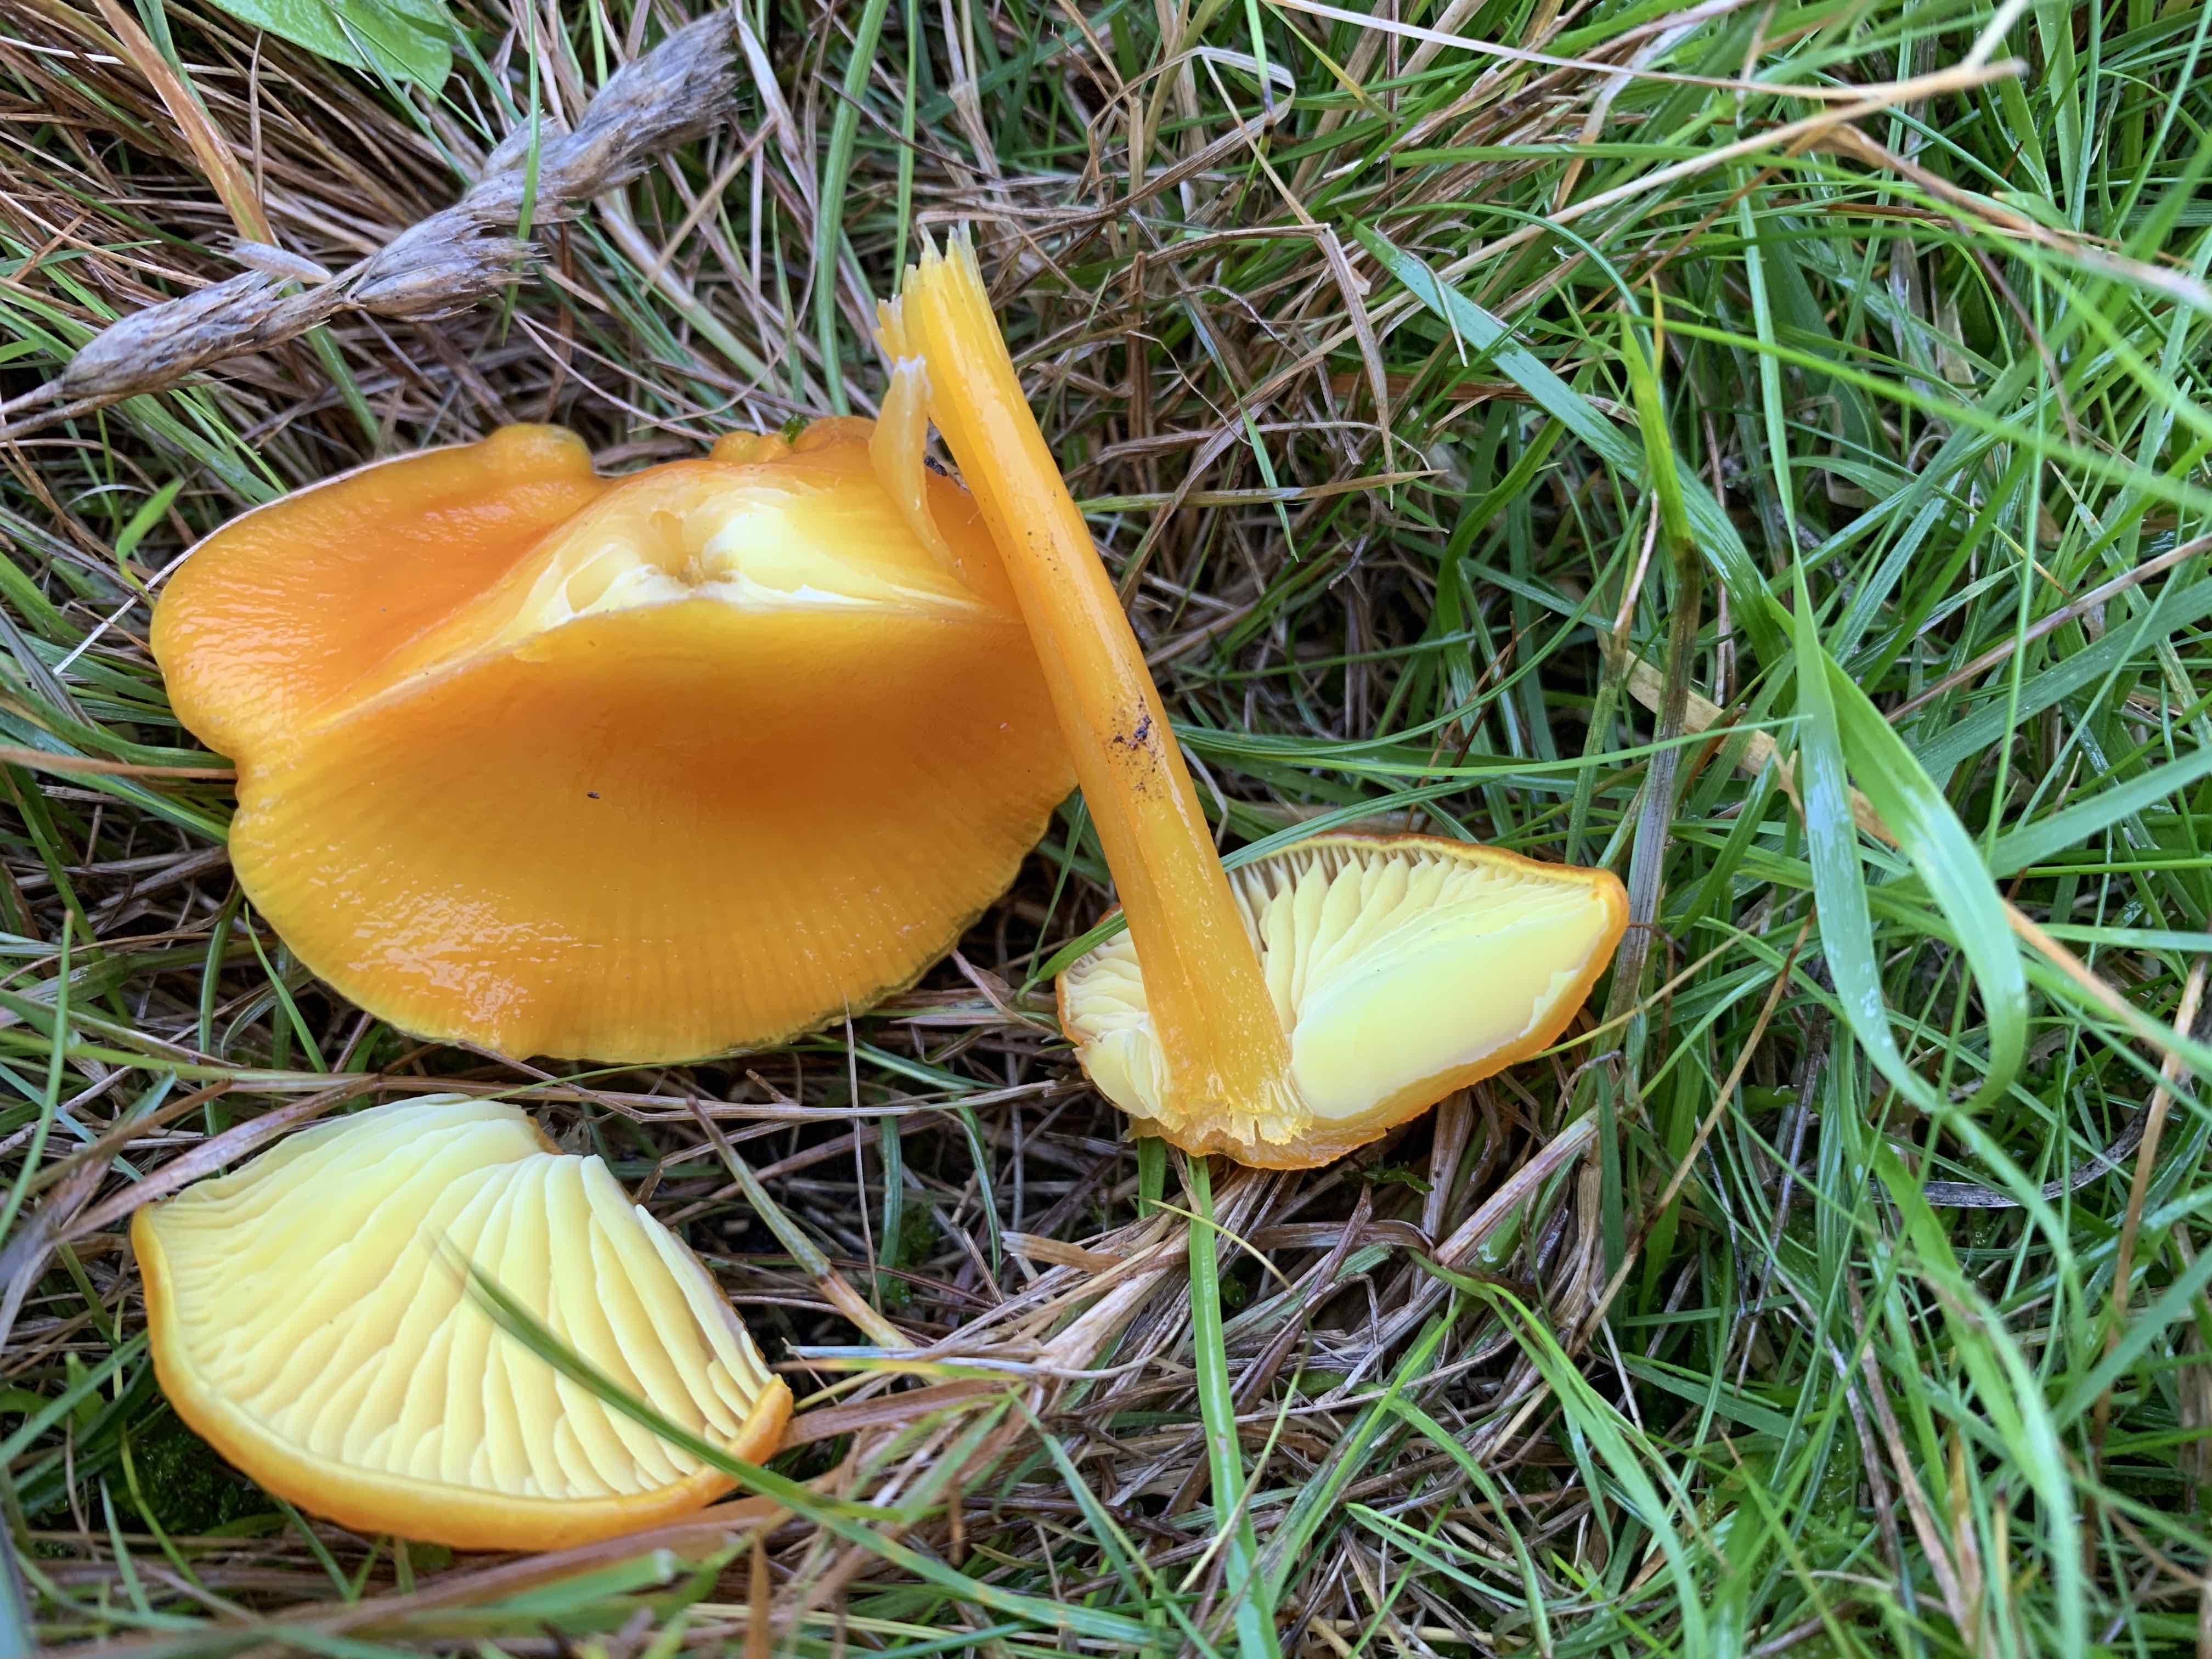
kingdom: Fungi
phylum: Basidiomycota
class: Agaricomycetes
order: Agaricales
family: Hygrophoraceae
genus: Hygrocybe
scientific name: Hygrocybe chlorophana
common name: gul vokshat
